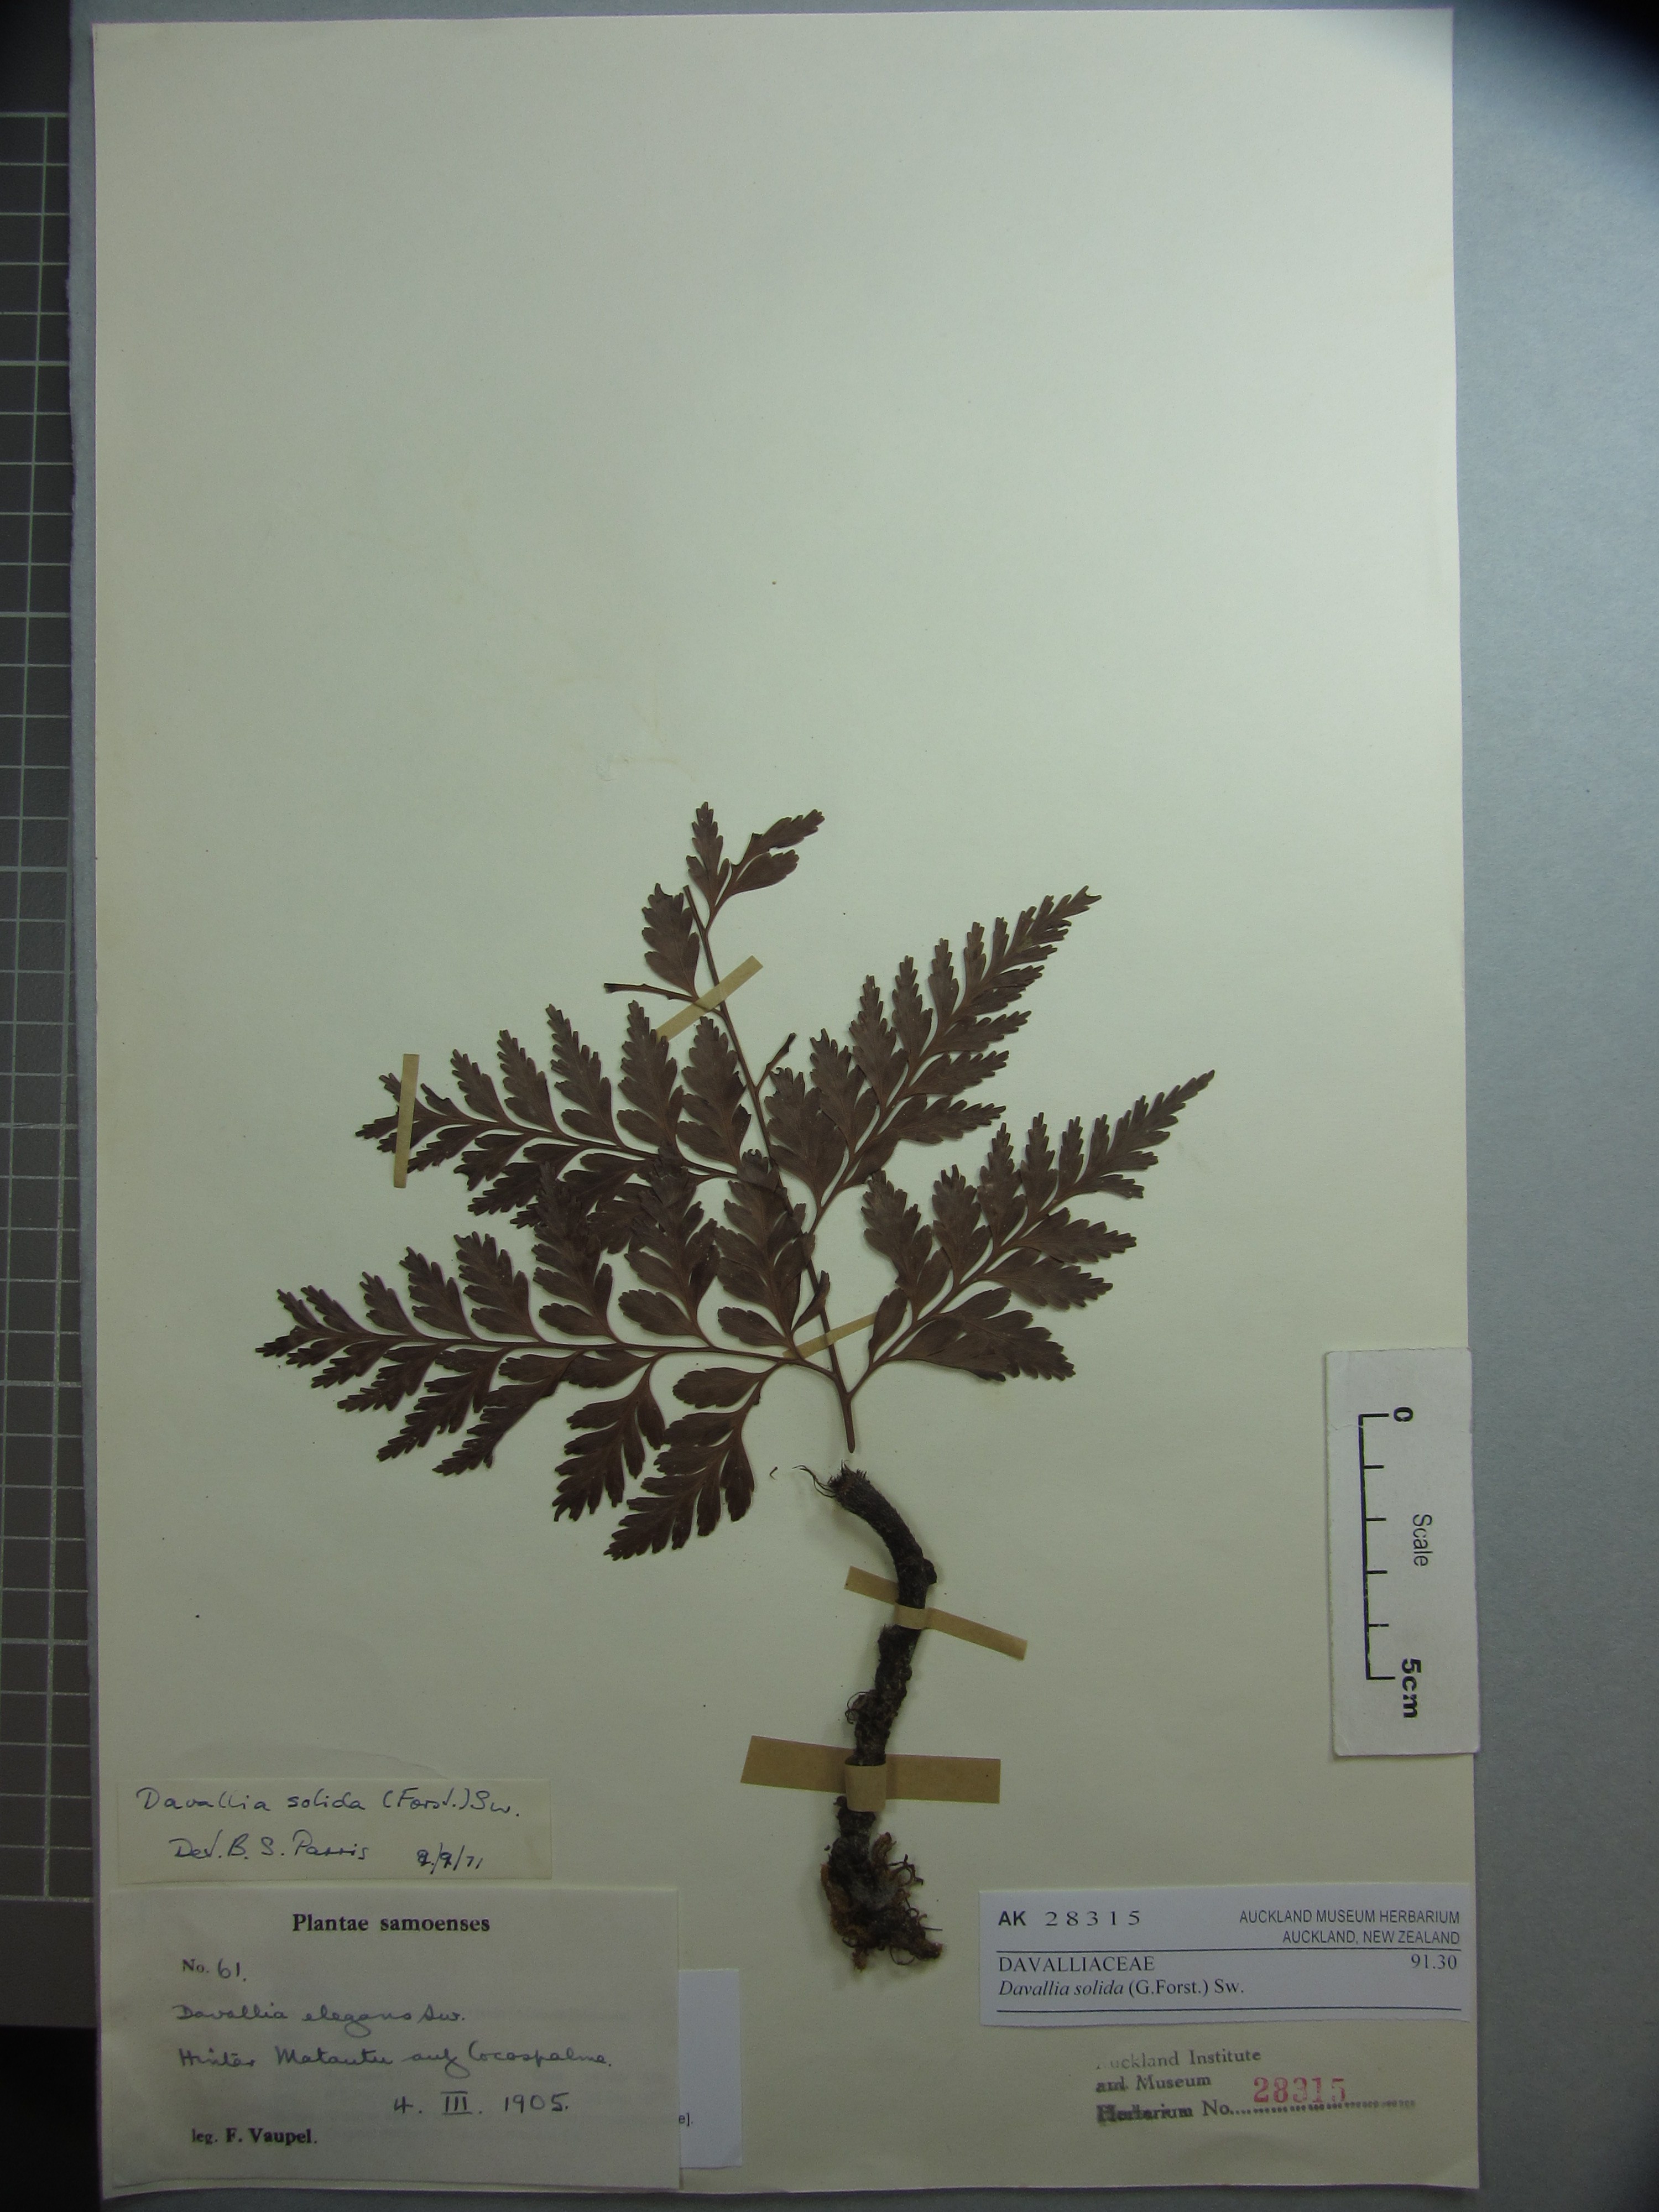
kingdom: Plantae
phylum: Tracheophyta
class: Polypodiopsida
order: Polypodiales
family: Davalliaceae
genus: Davallia
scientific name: Davallia solida
